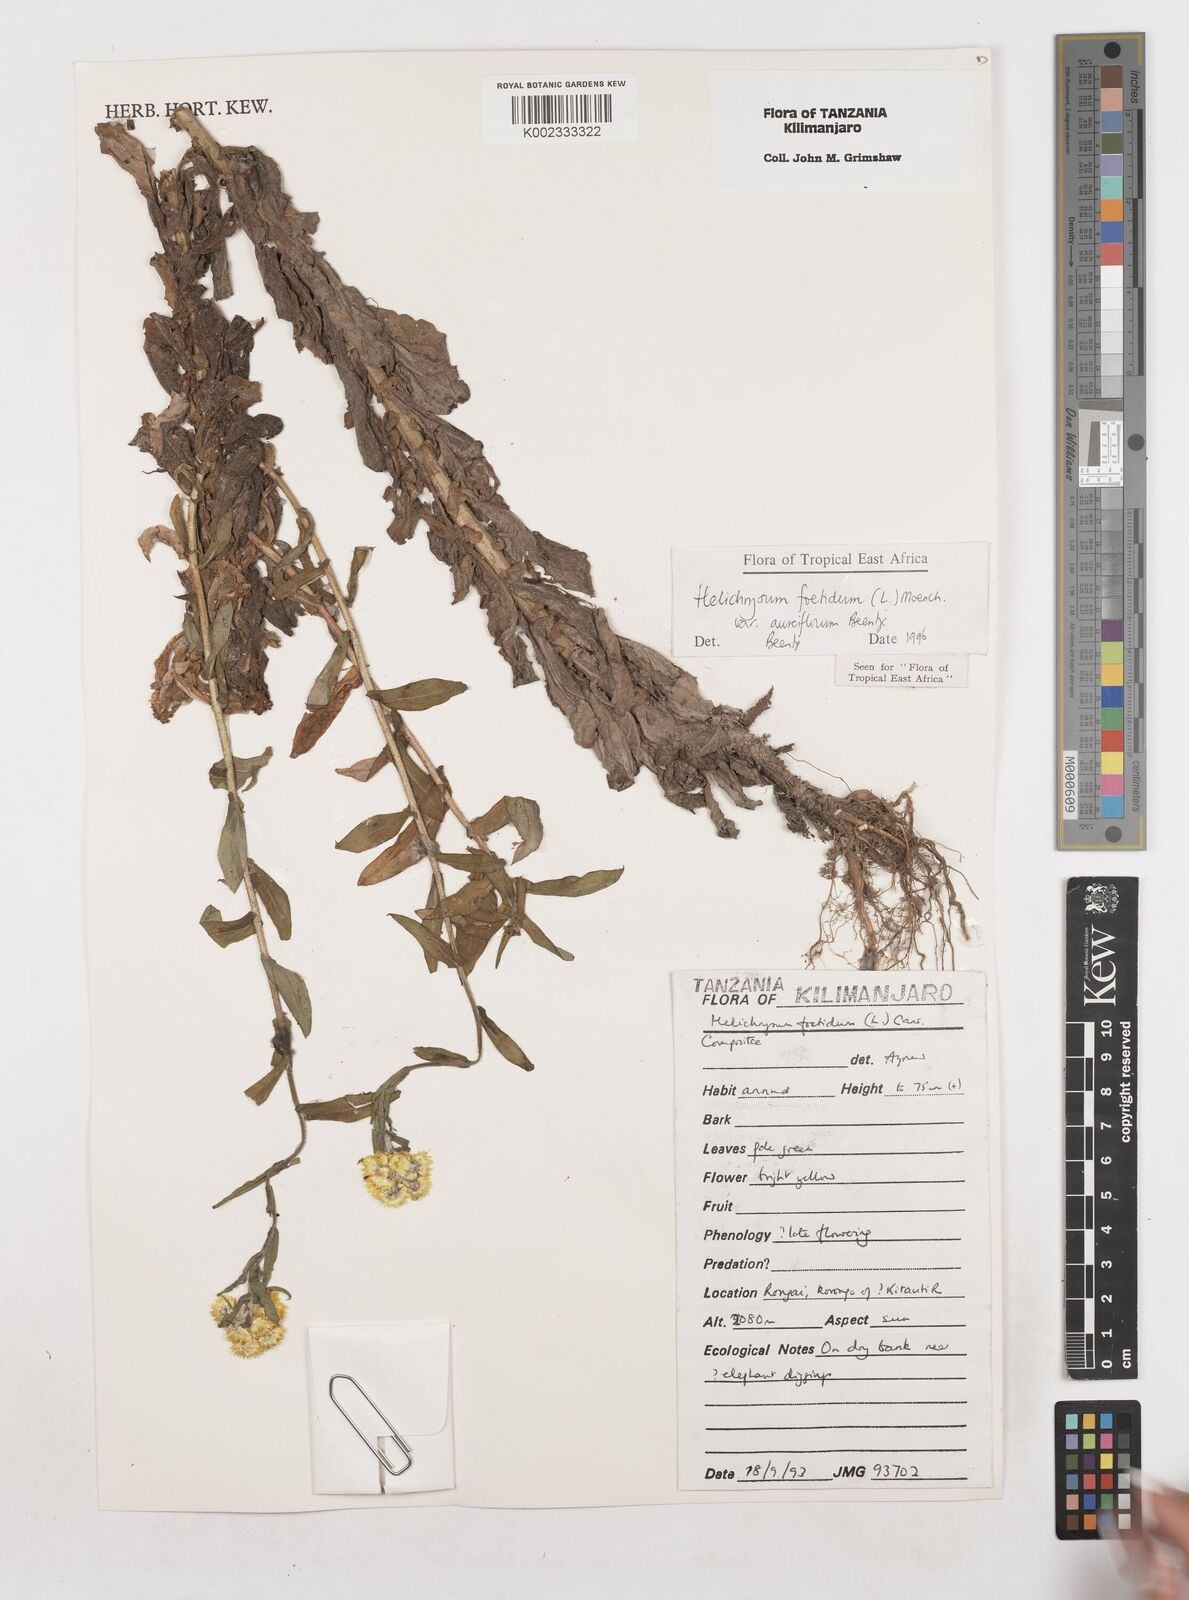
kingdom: Plantae
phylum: Tracheophyta
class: Magnoliopsida
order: Asterales
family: Asteraceae
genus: Helichrysum
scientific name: Helichrysum foetidum
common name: Stinking everlasting
